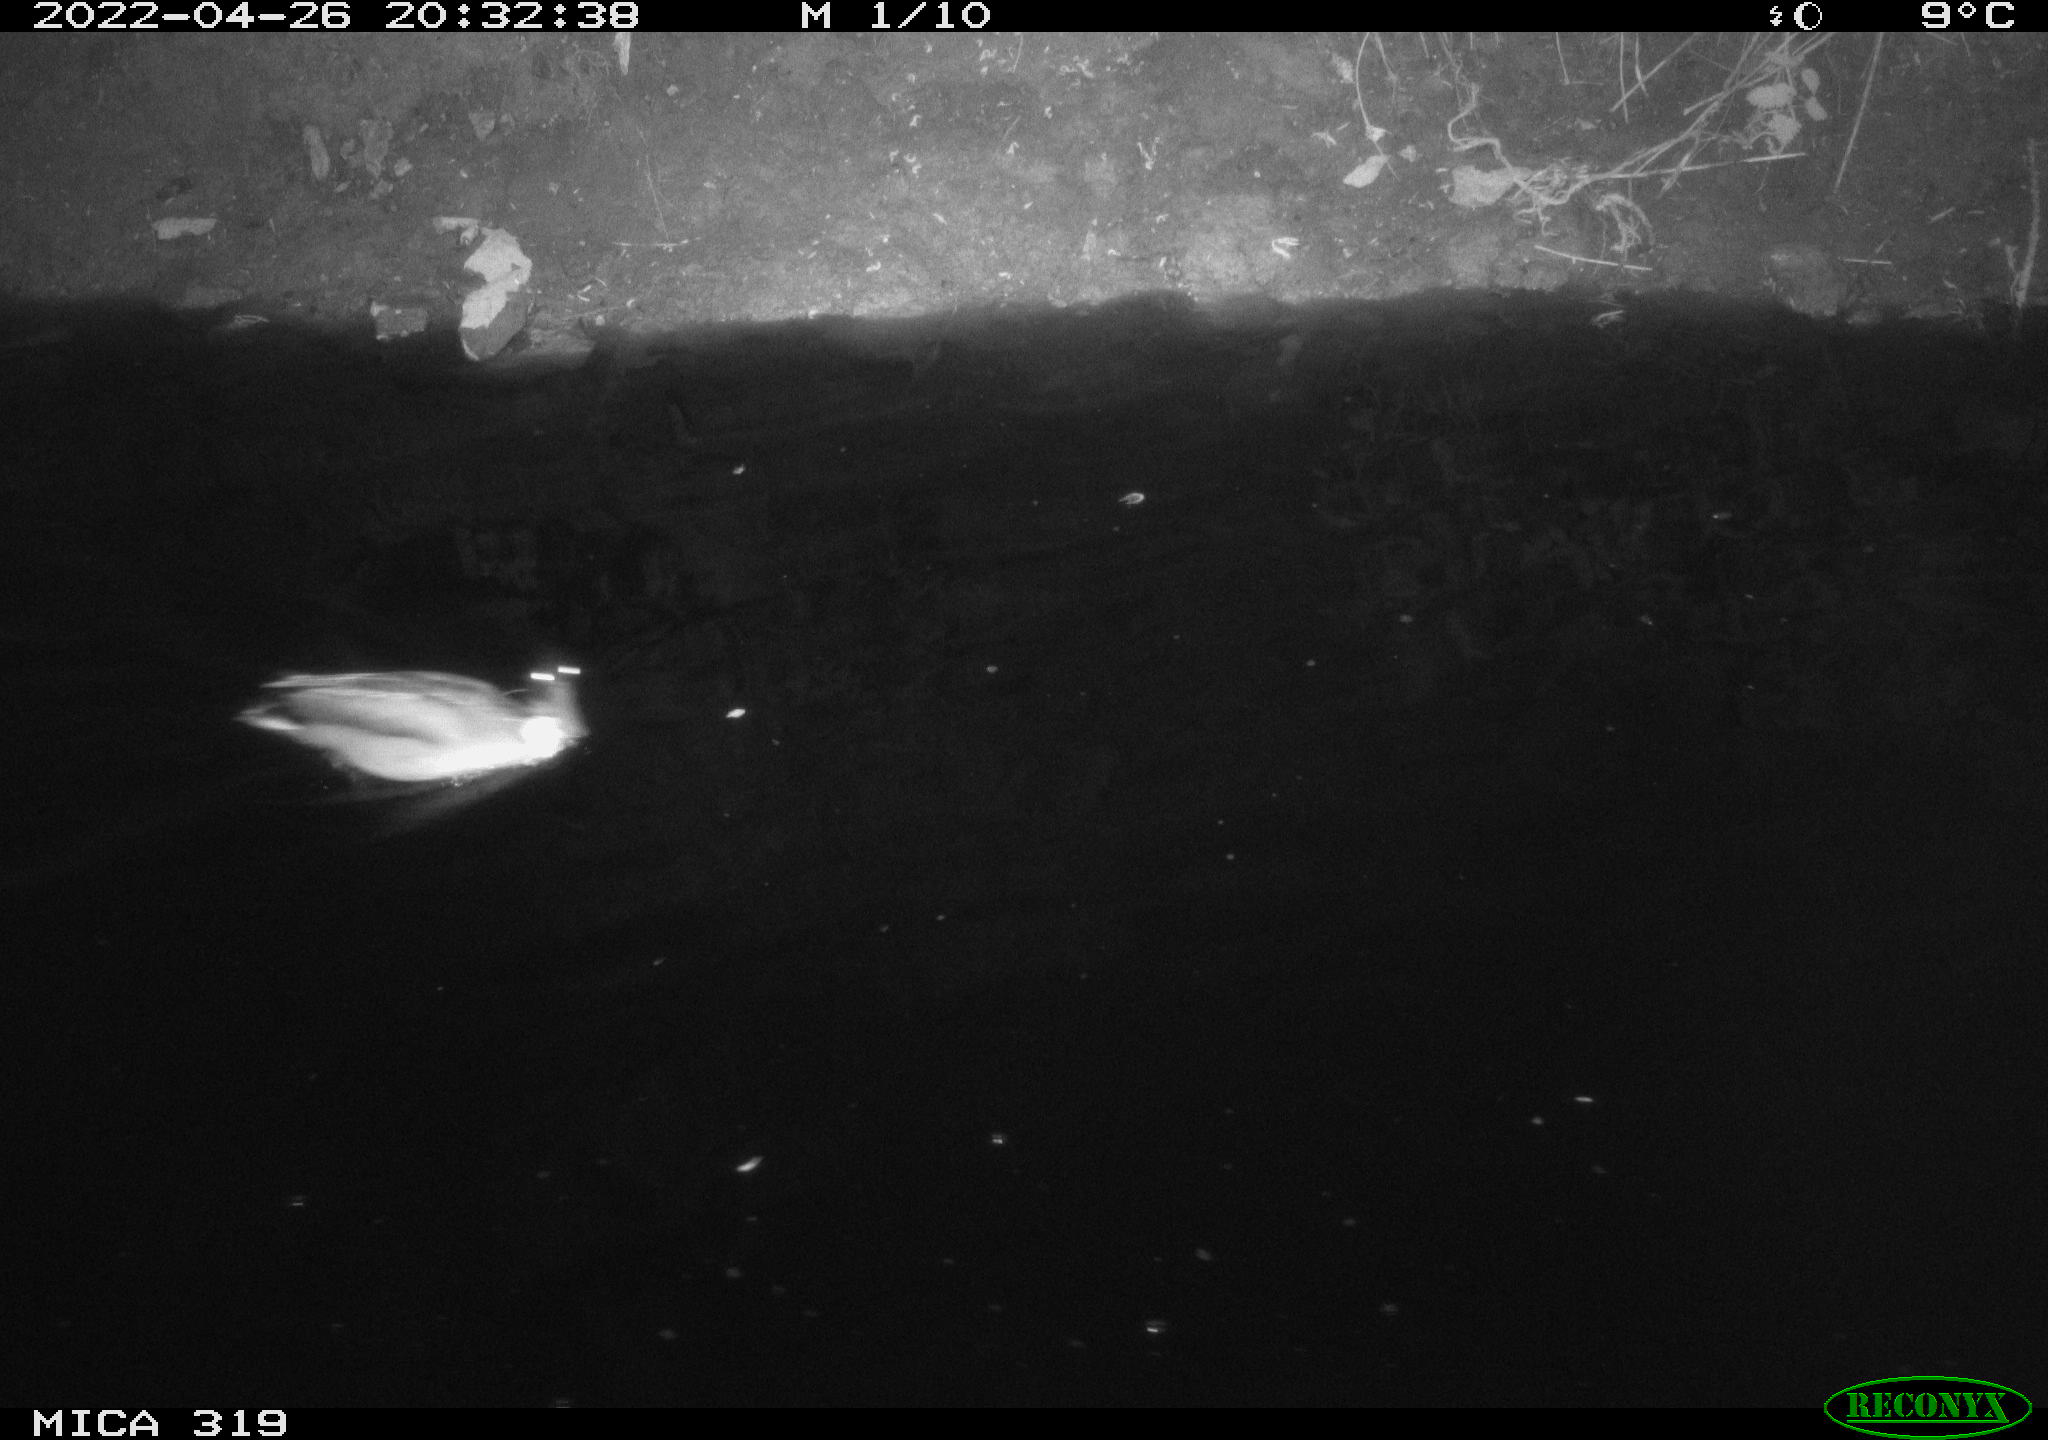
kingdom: Animalia
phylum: Chordata
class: Aves
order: Anseriformes
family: Anatidae
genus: Anas
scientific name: Anas platyrhynchos
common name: Mallard
